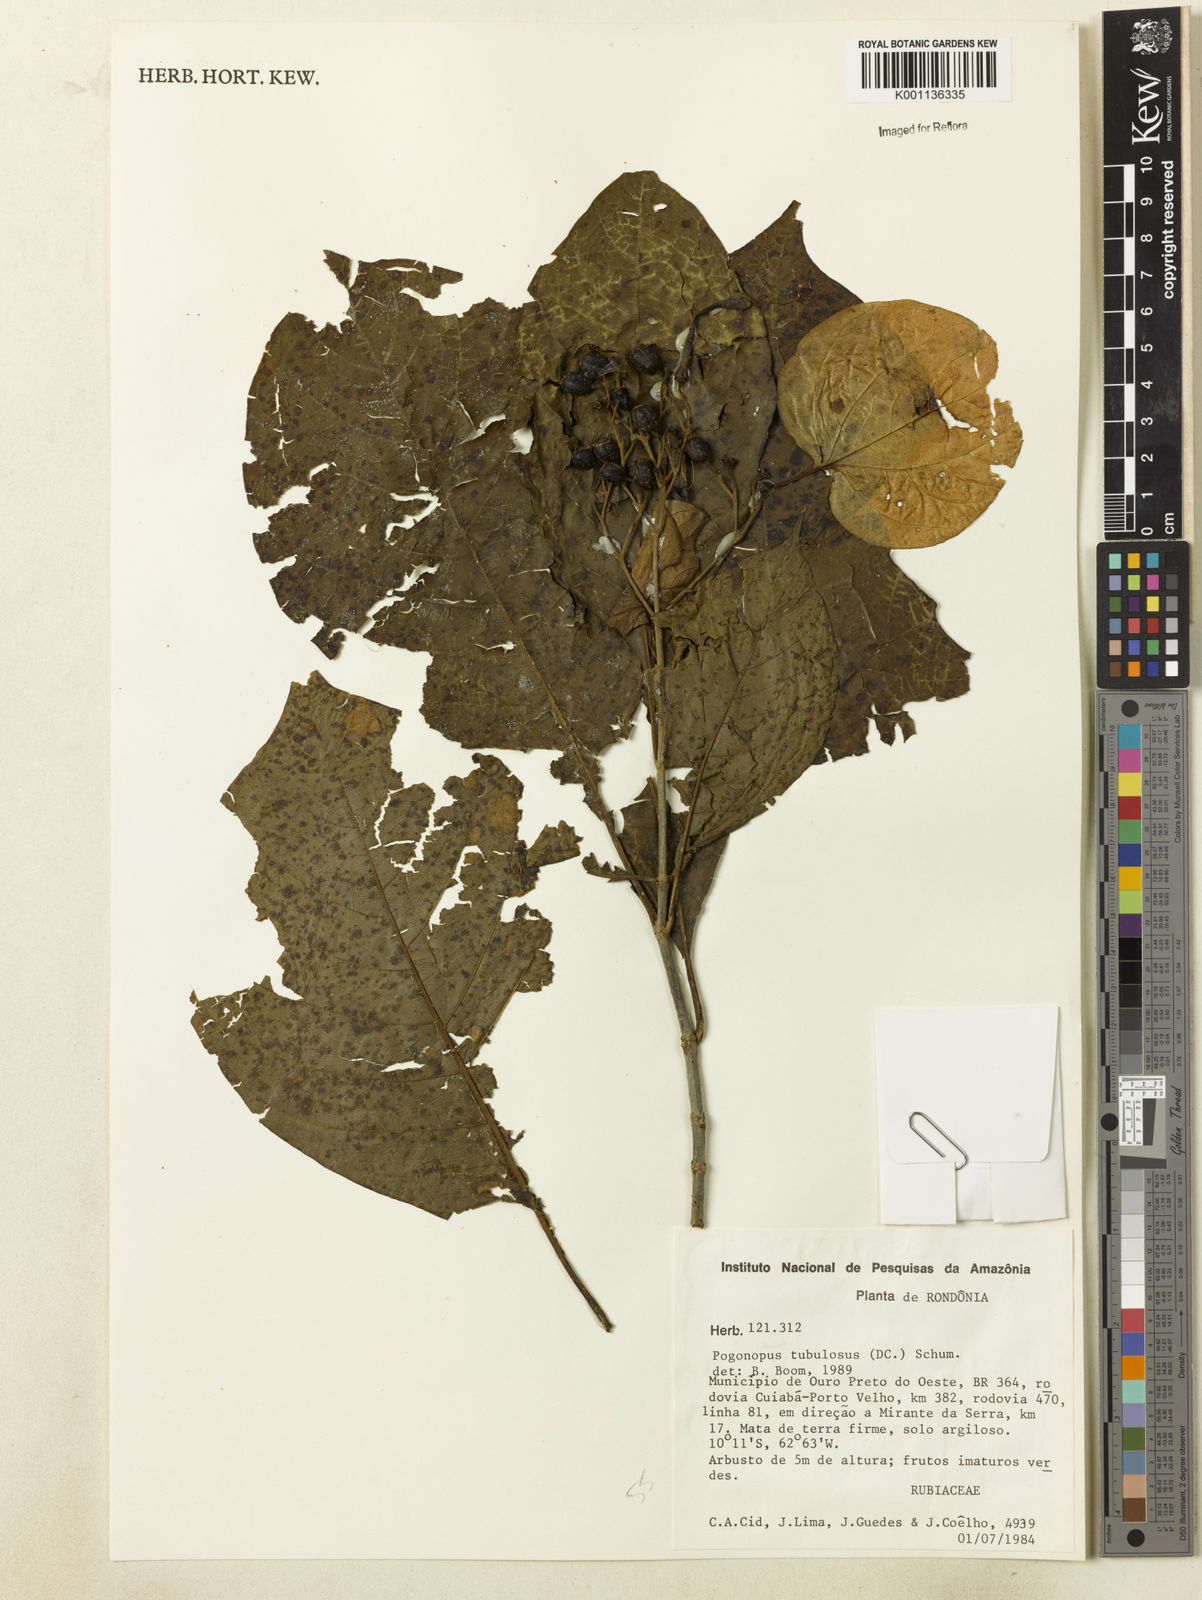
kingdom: Plantae
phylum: Tracheophyta
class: Magnoliopsida
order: Gentianales
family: Rubiaceae
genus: Pogonopus
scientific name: Pogonopus tubulosus
